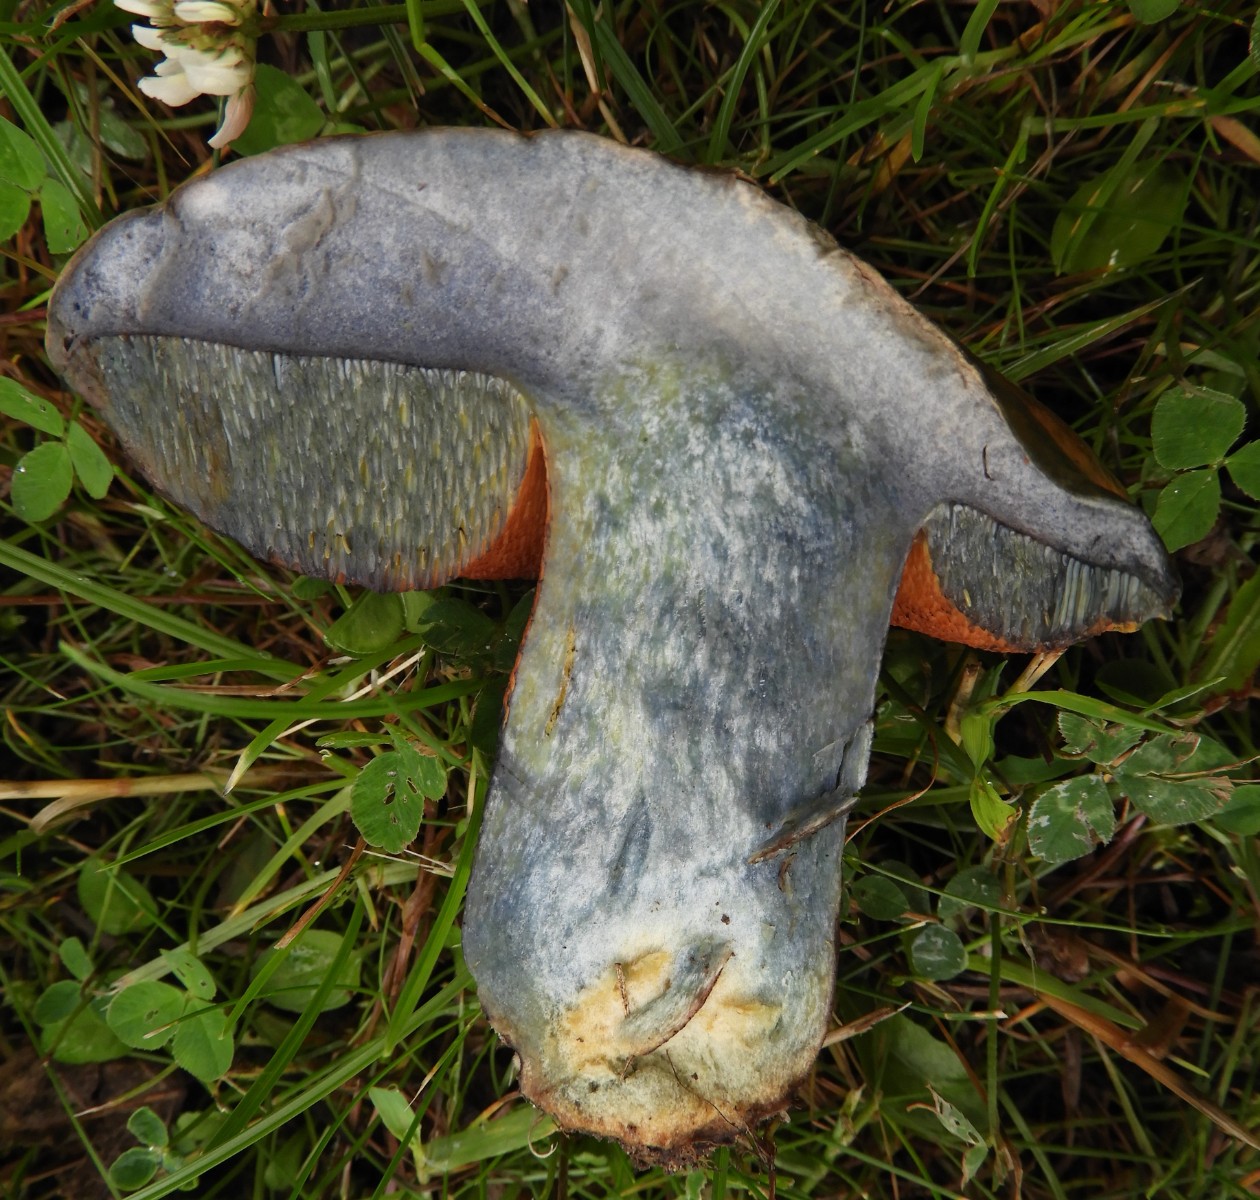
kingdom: Fungi
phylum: Basidiomycota
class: Agaricomycetes
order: Boletales
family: Boletaceae
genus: Suillellus
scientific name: Suillellus luridus
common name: netstokket indigorørhat
